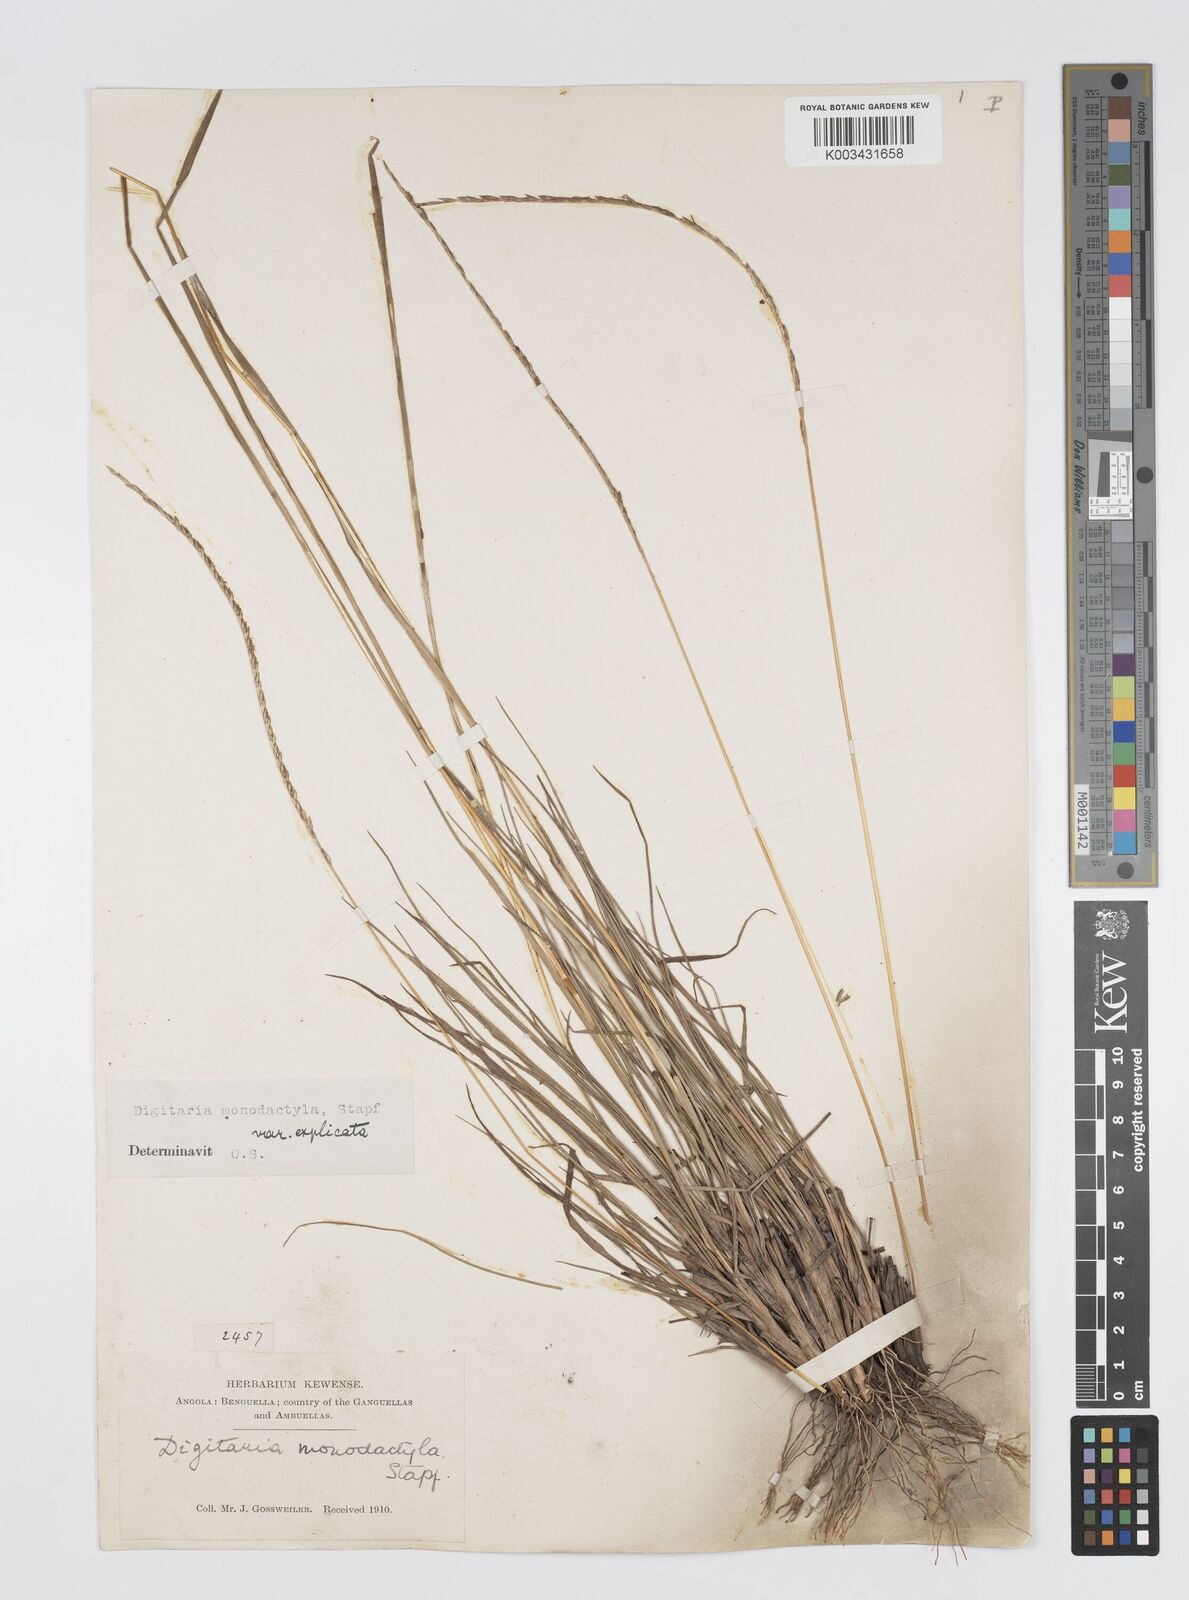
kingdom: Plantae
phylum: Tracheophyta
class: Liliopsida
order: Poales
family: Poaceae
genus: Digitaria
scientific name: Digitaria monodactyla
